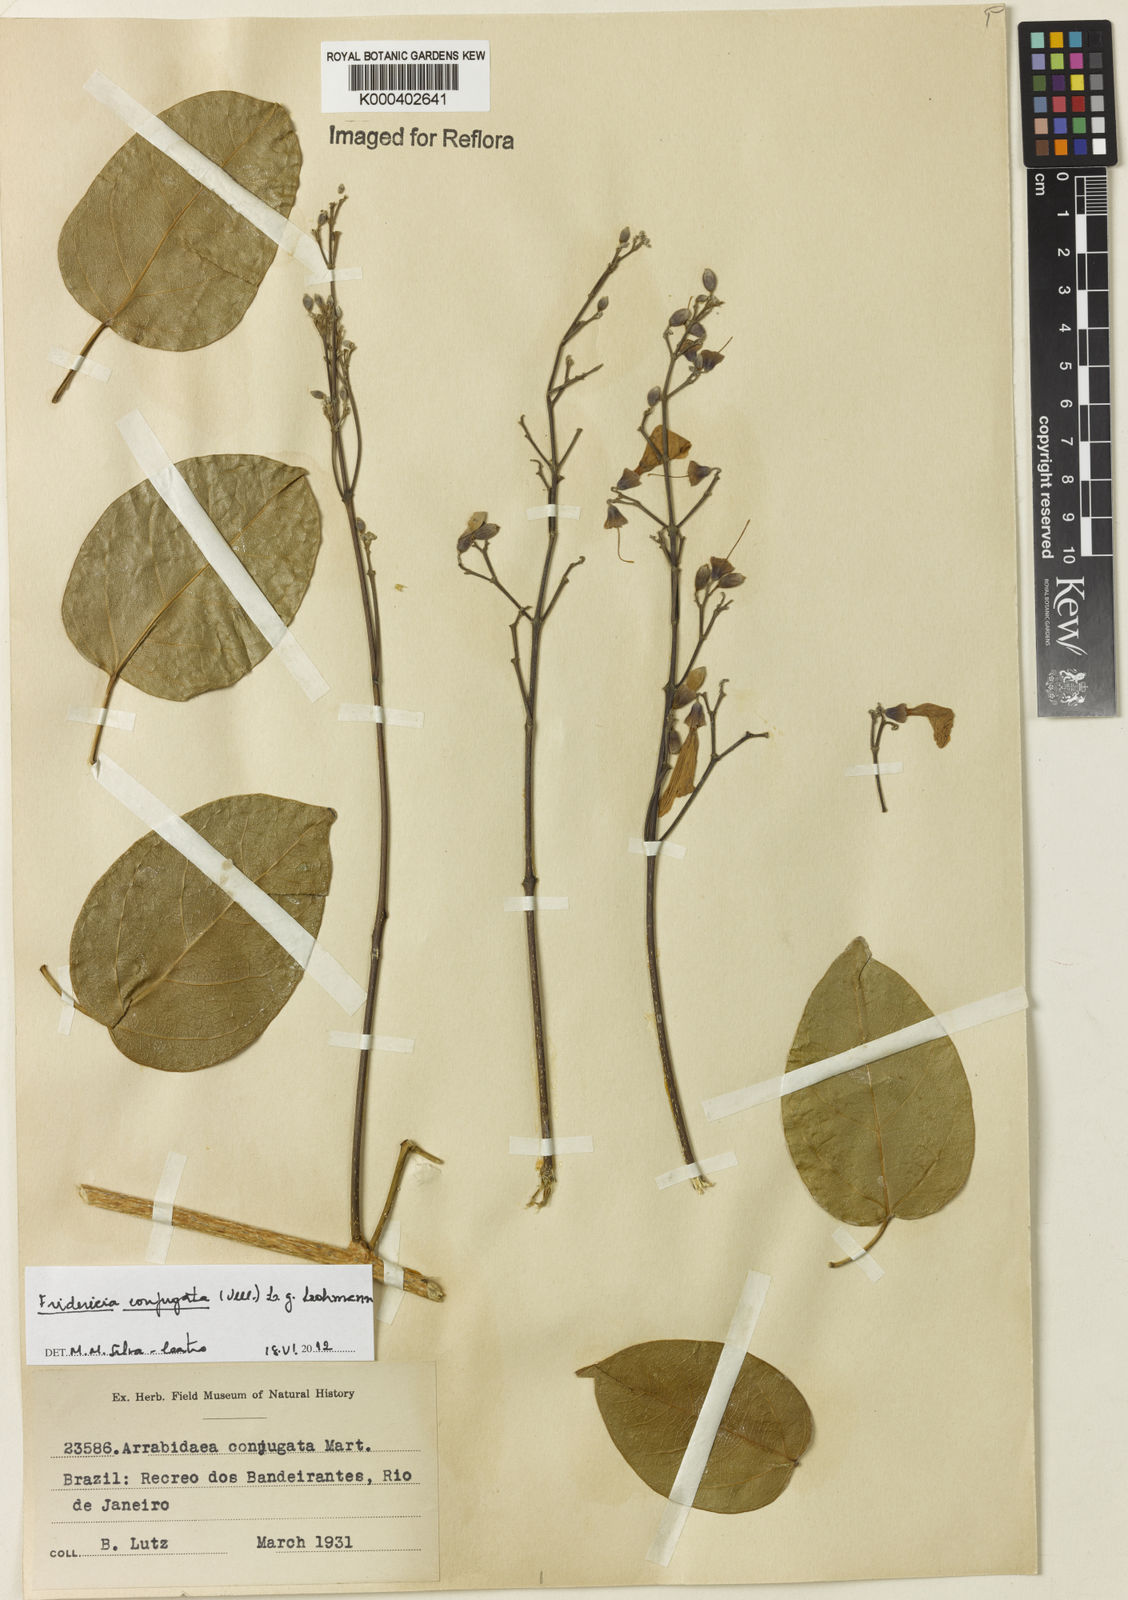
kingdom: Plantae
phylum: Tracheophyta
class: Magnoliopsida
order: Lamiales
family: Bignoniaceae
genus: Fridericia
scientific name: Fridericia conjugata
